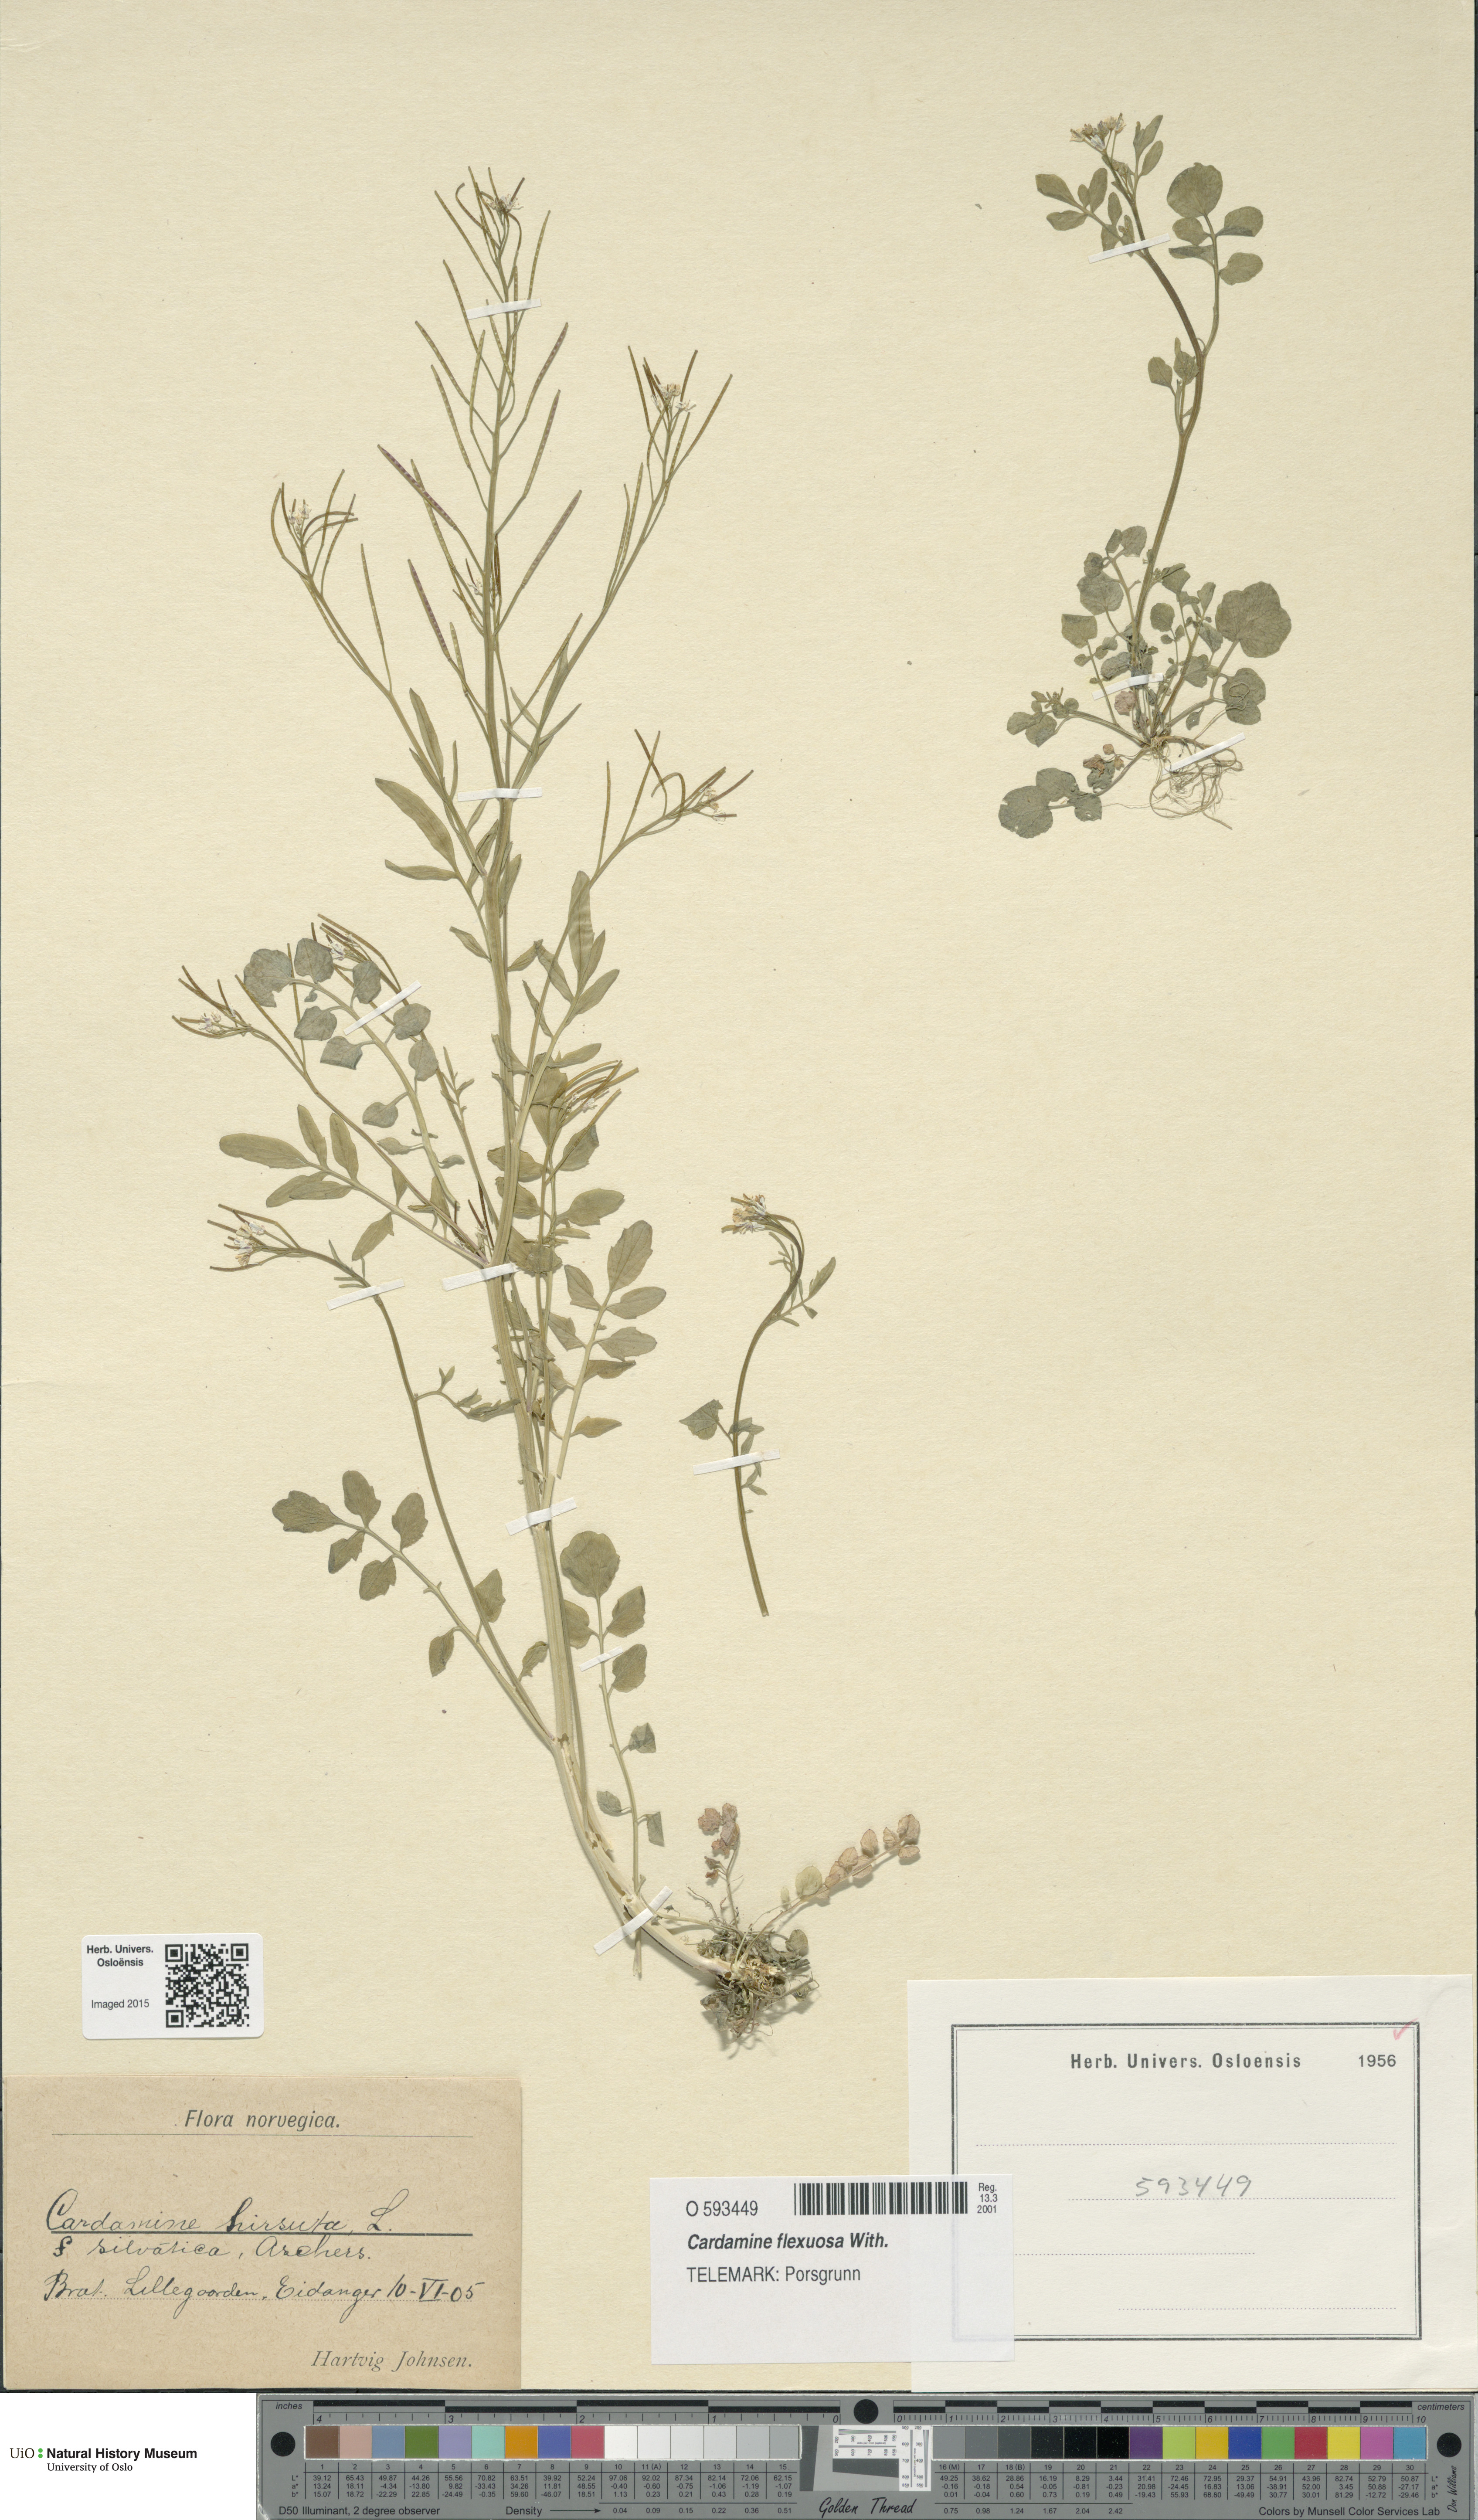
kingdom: Plantae
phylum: Tracheophyta
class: Magnoliopsida
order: Brassicales
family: Brassicaceae
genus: Cardamine
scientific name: Cardamine flexuosa
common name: Woodland bittercress
